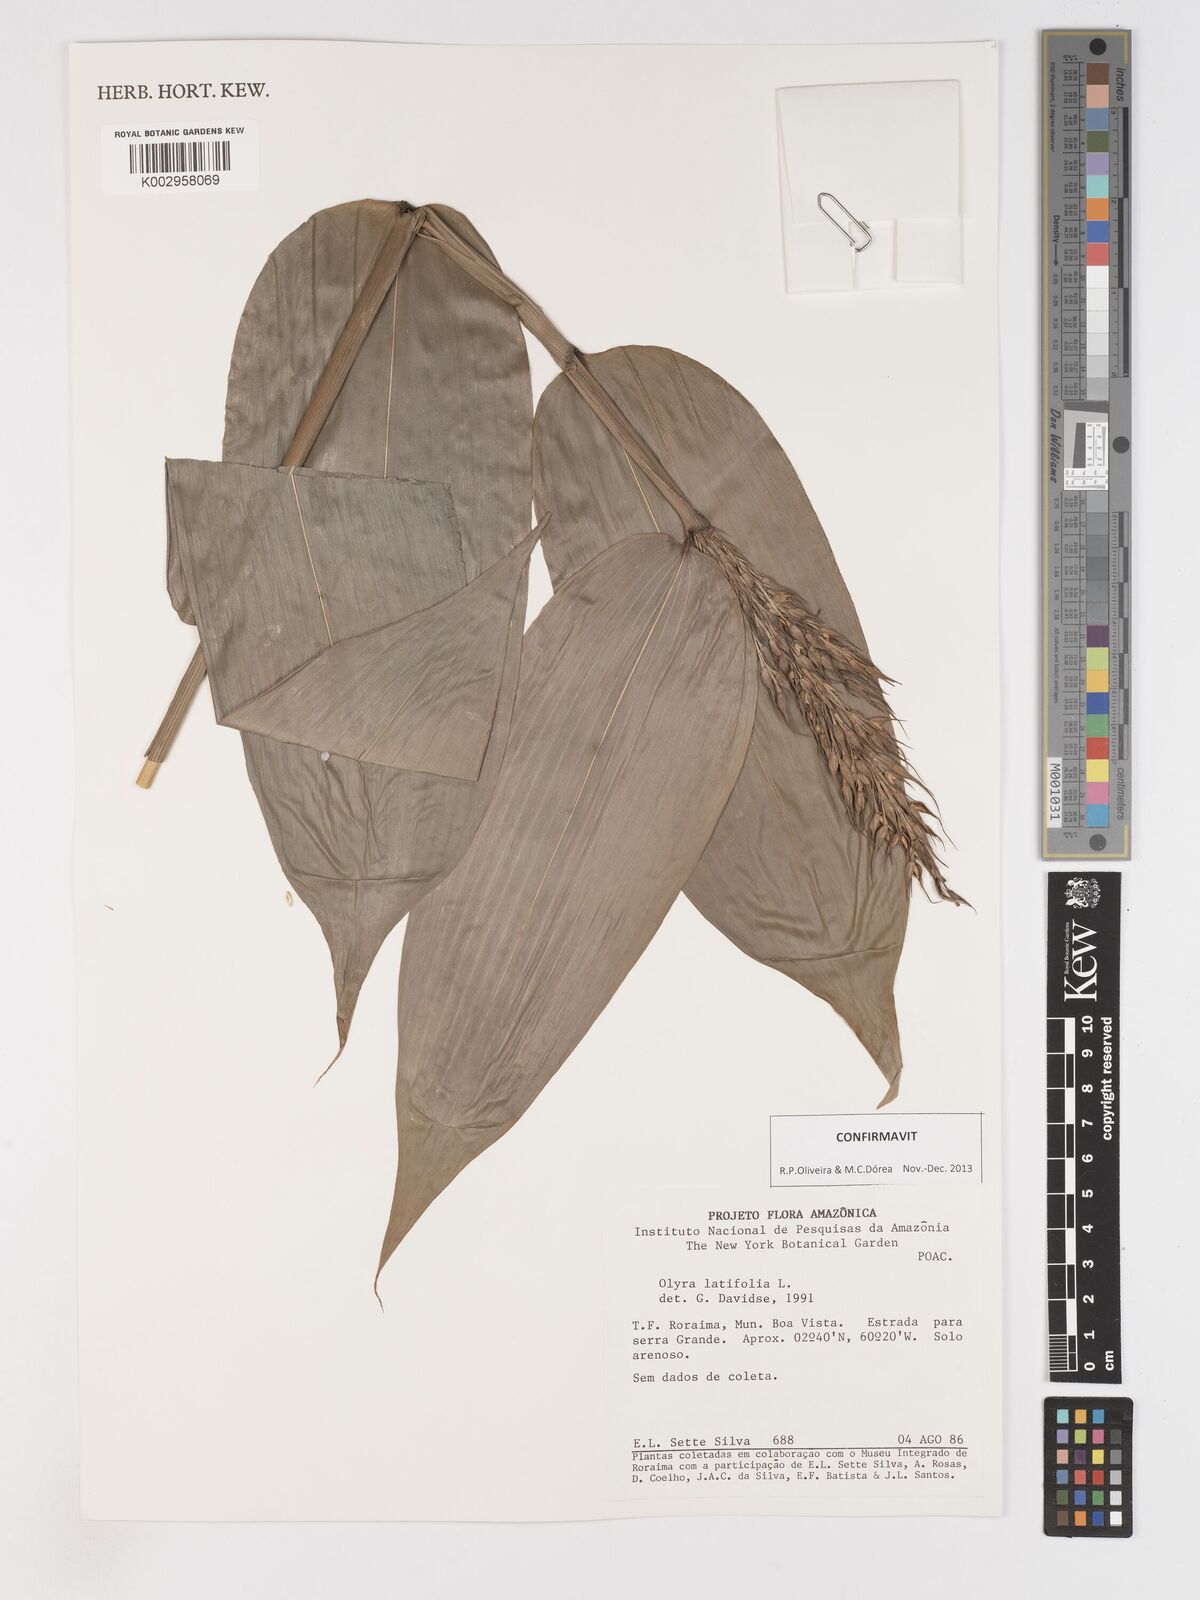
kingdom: Plantae
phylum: Tracheophyta
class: Liliopsida
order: Poales
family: Poaceae
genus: Olyra
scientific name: Olyra latifolia
